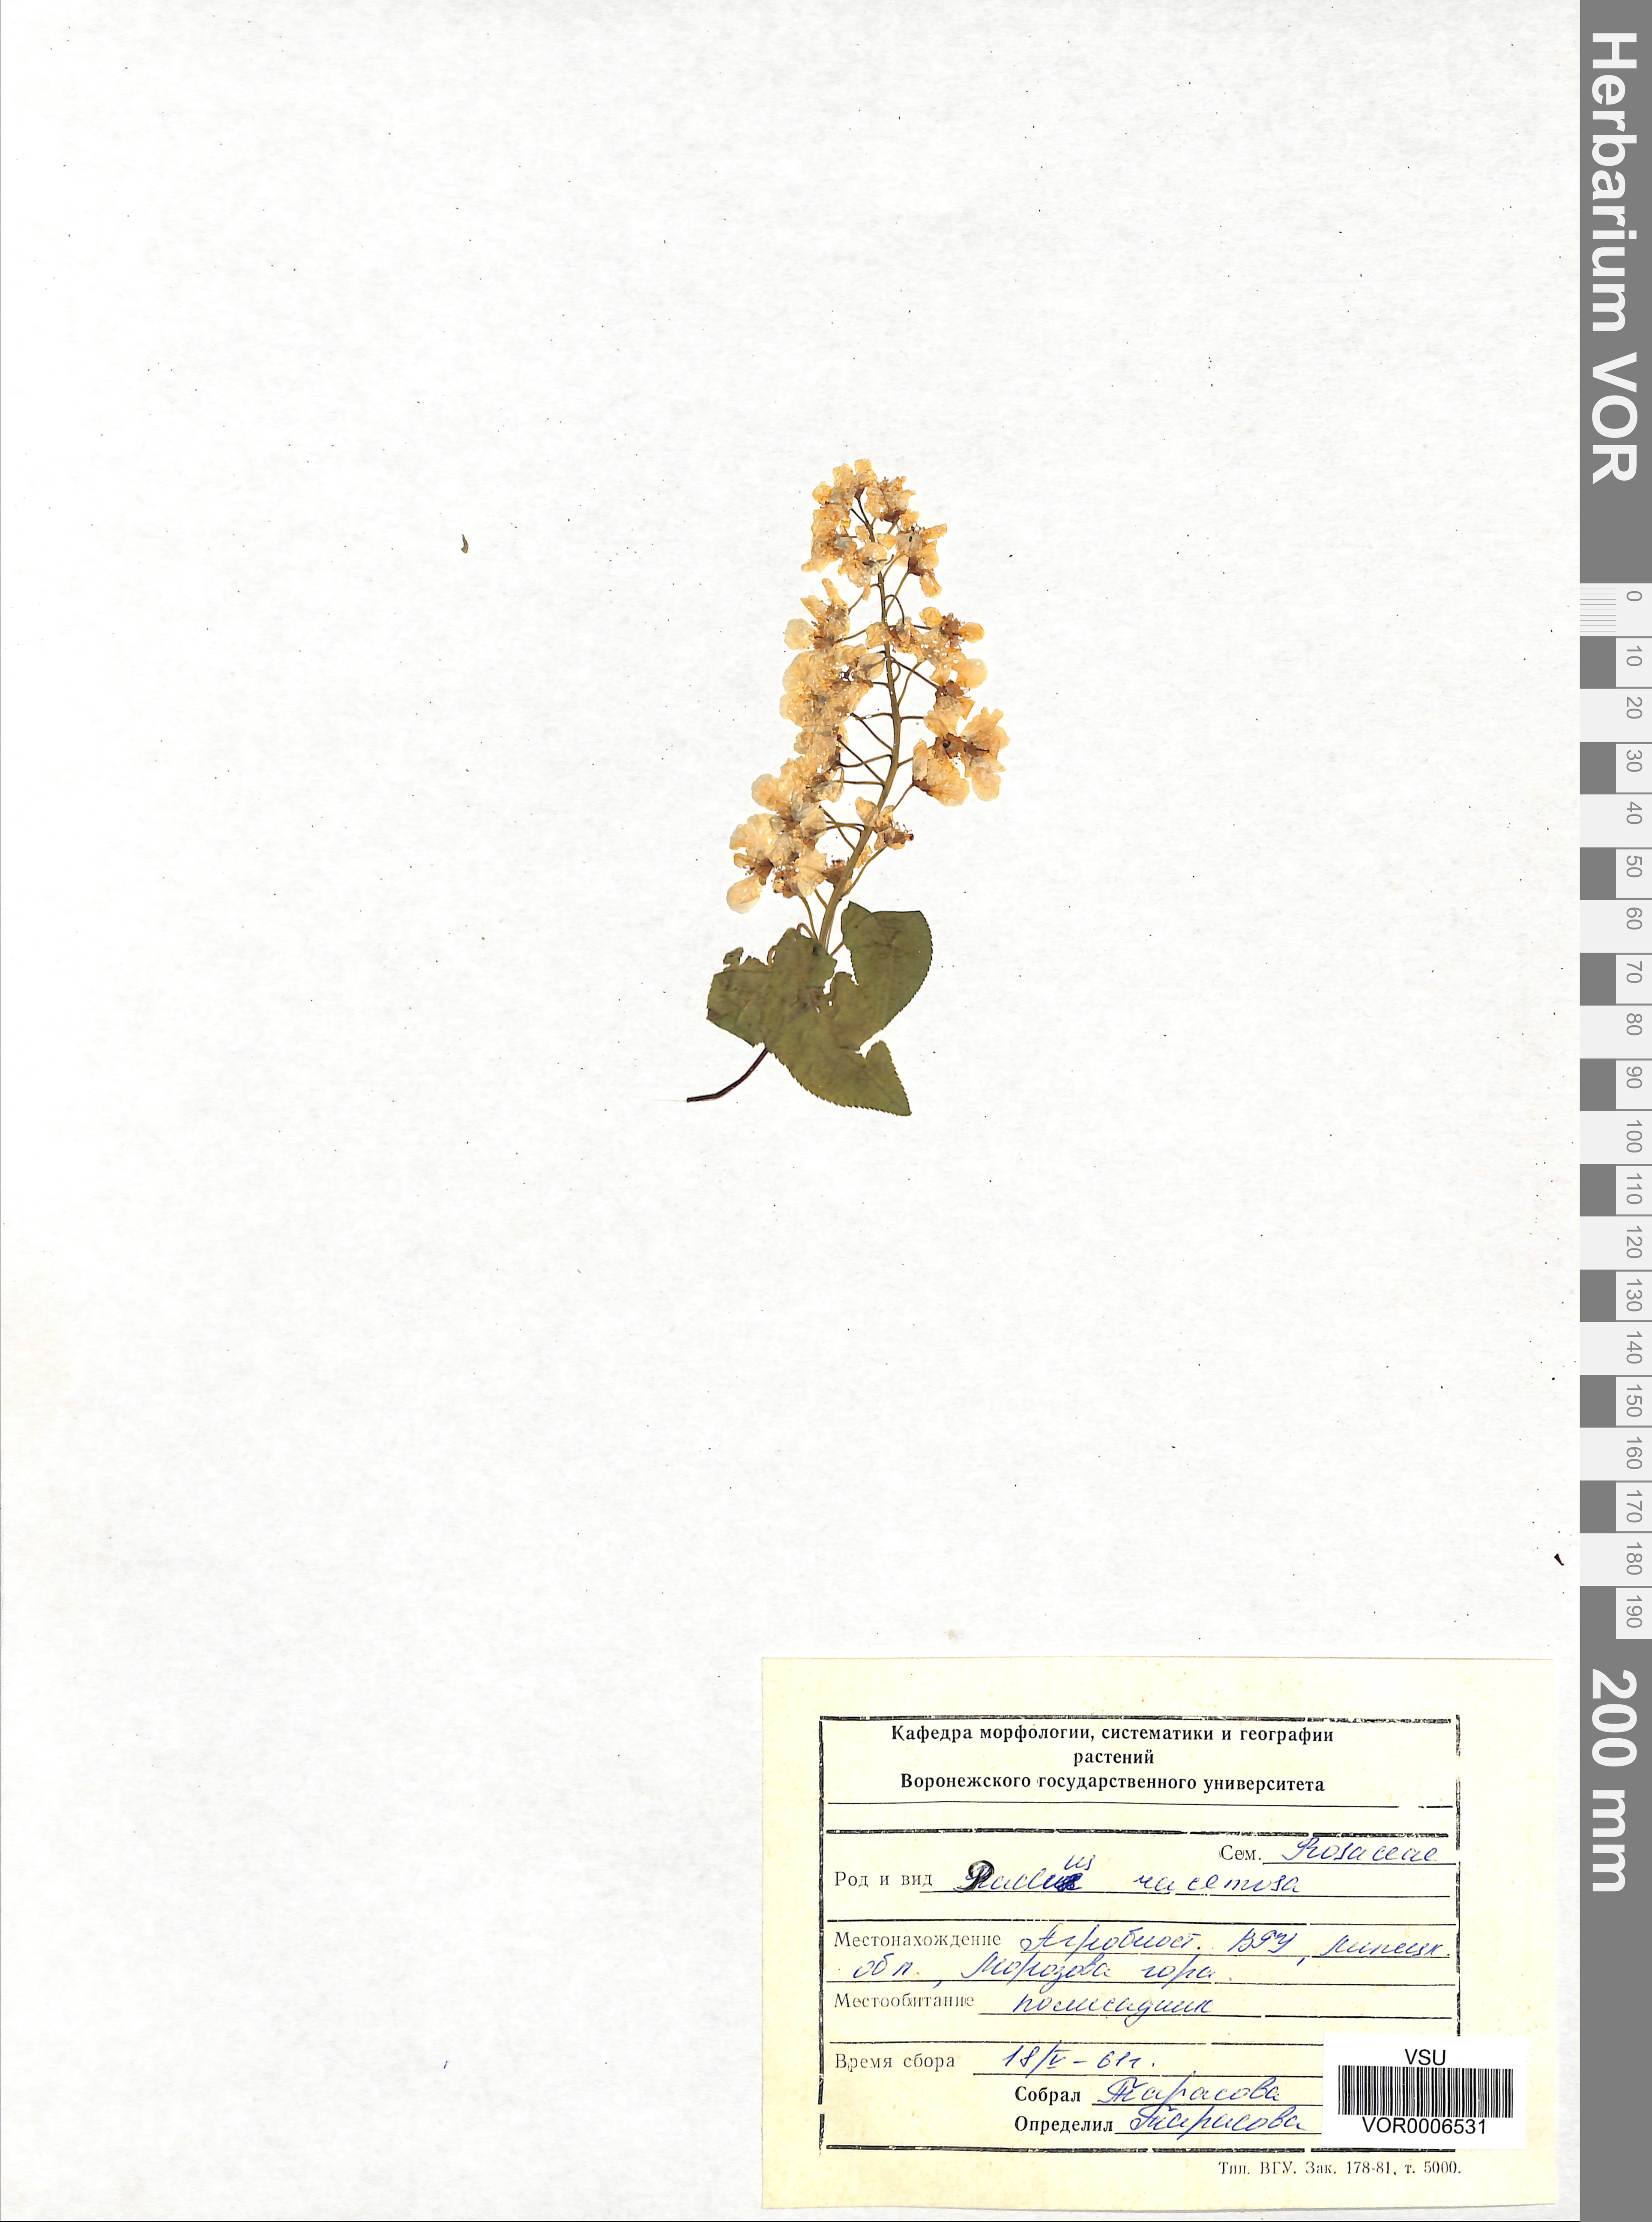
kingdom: Plantae
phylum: Tracheophyta
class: Magnoliopsida
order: Rosales
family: Rosaceae
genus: Prunus
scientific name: Prunus padus
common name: Bird cherry
